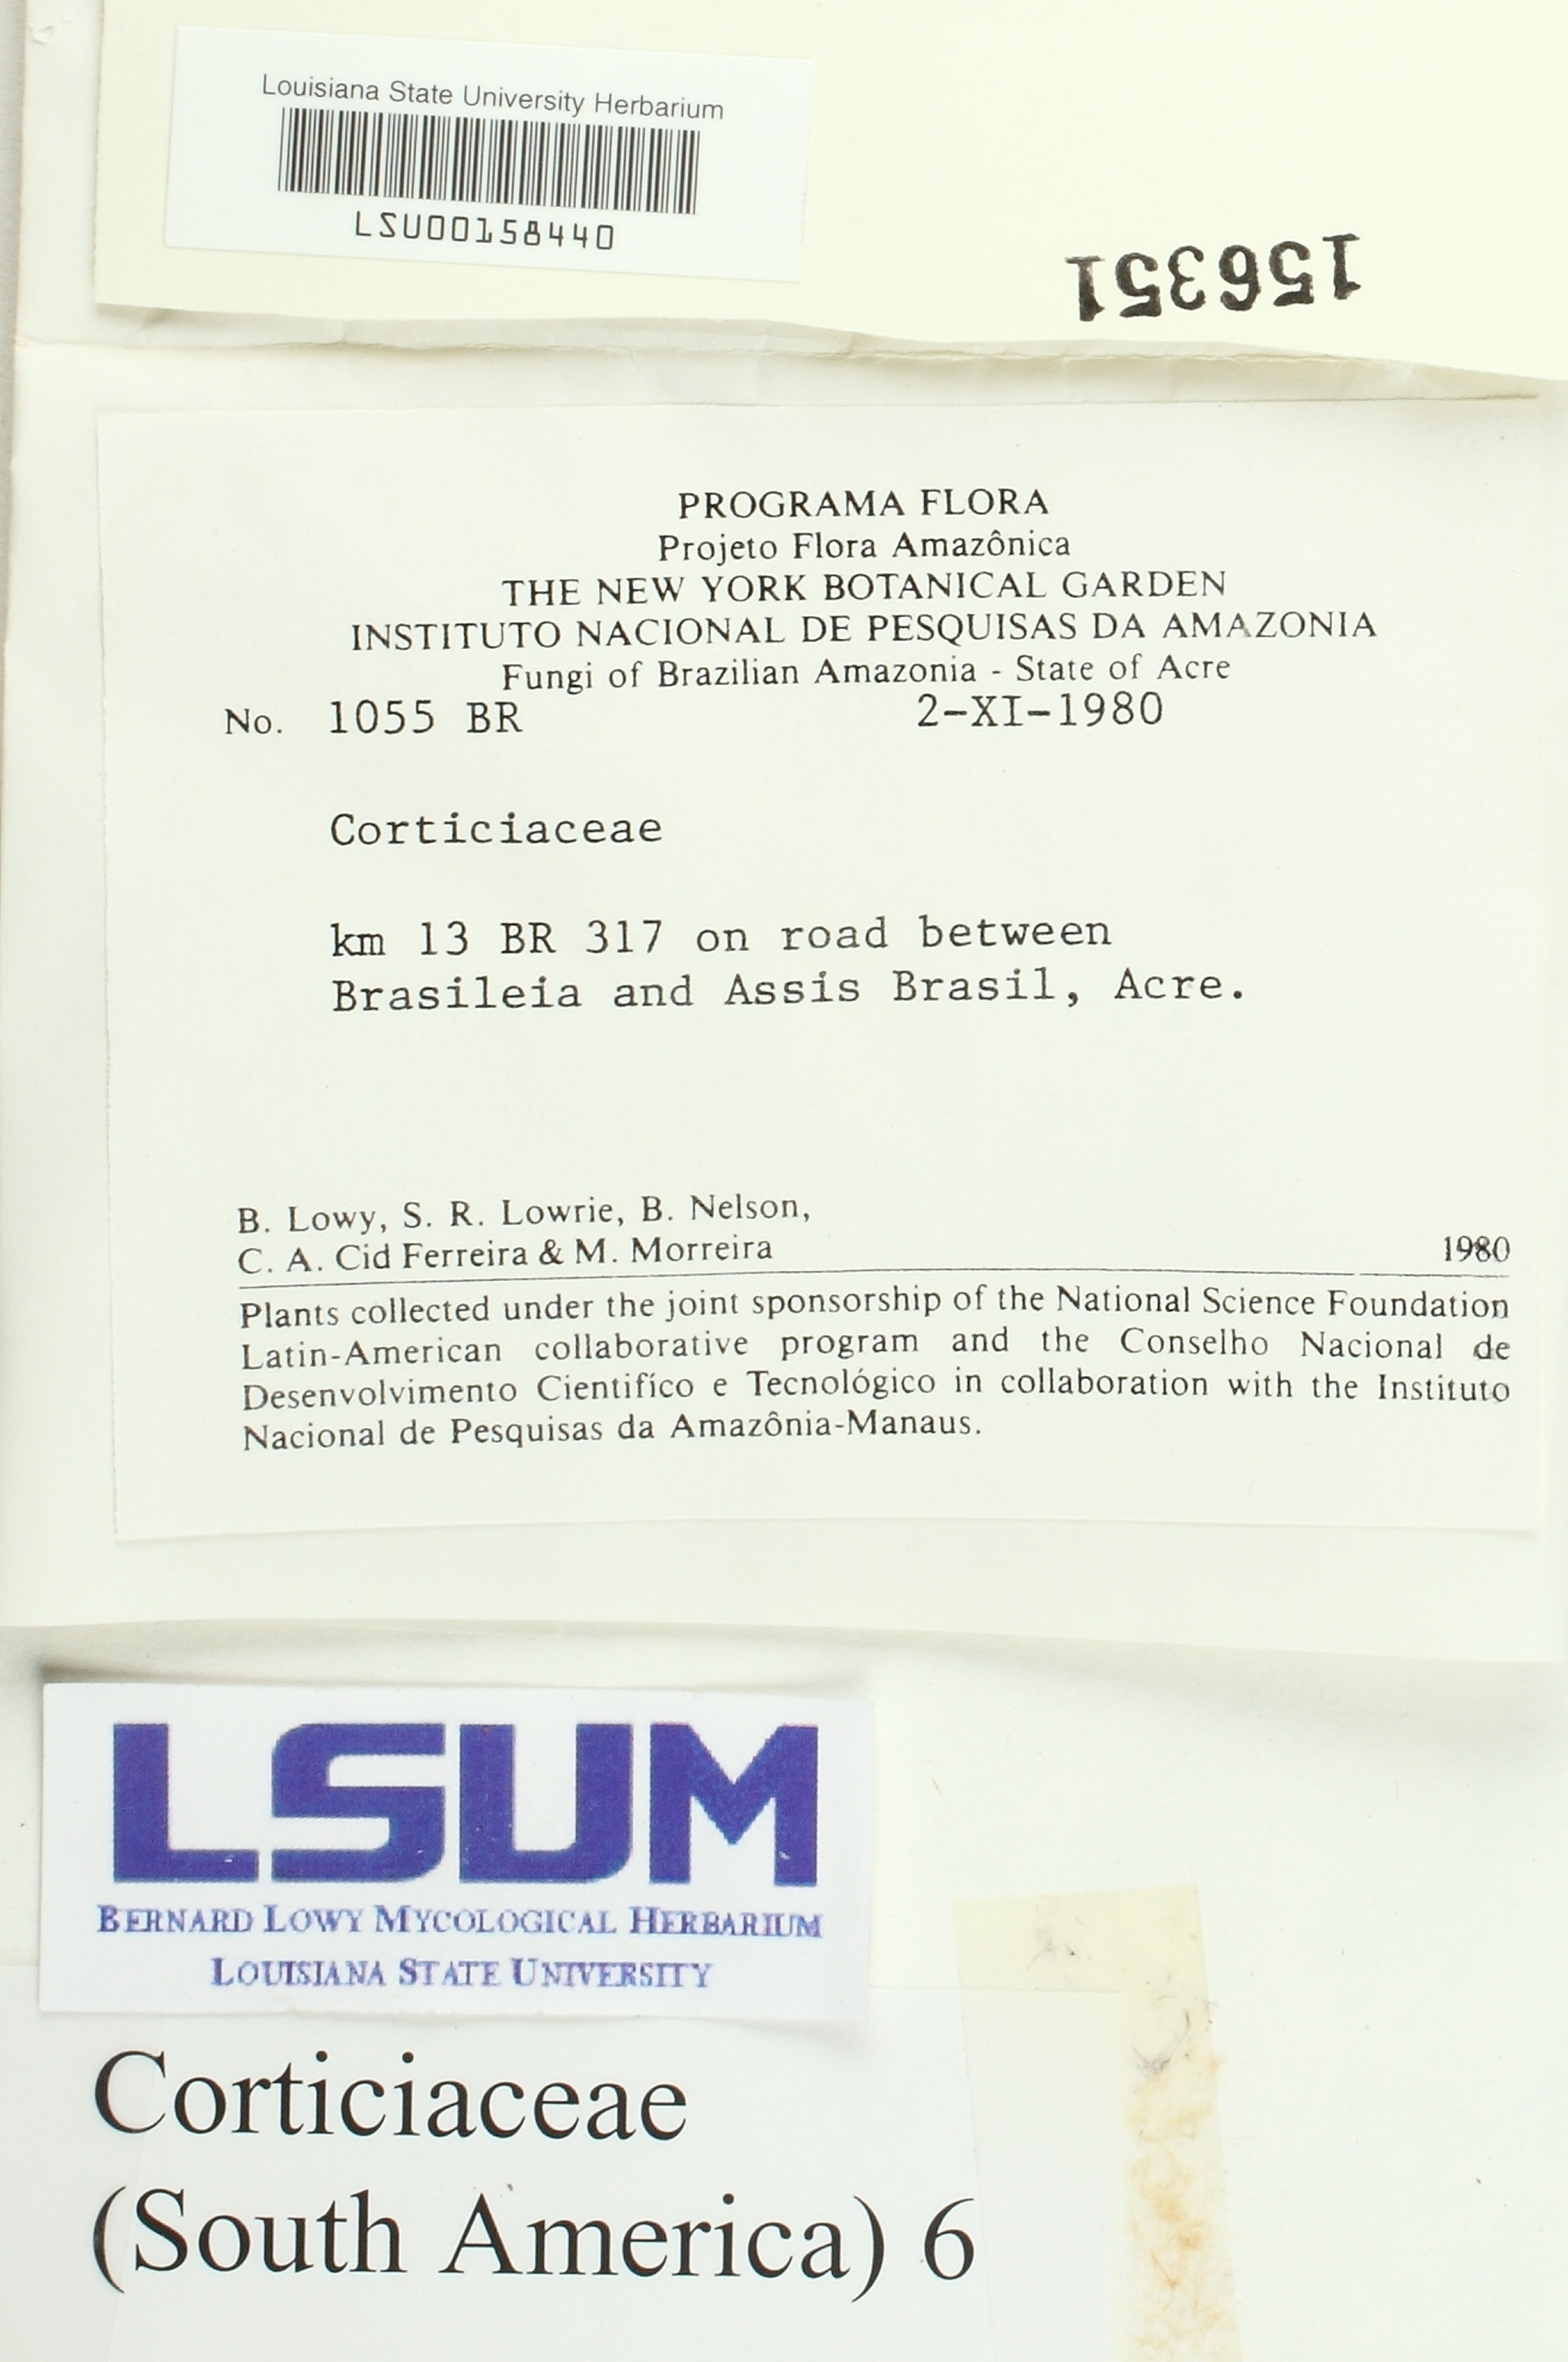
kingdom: Fungi
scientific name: Fungi
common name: Fungi
